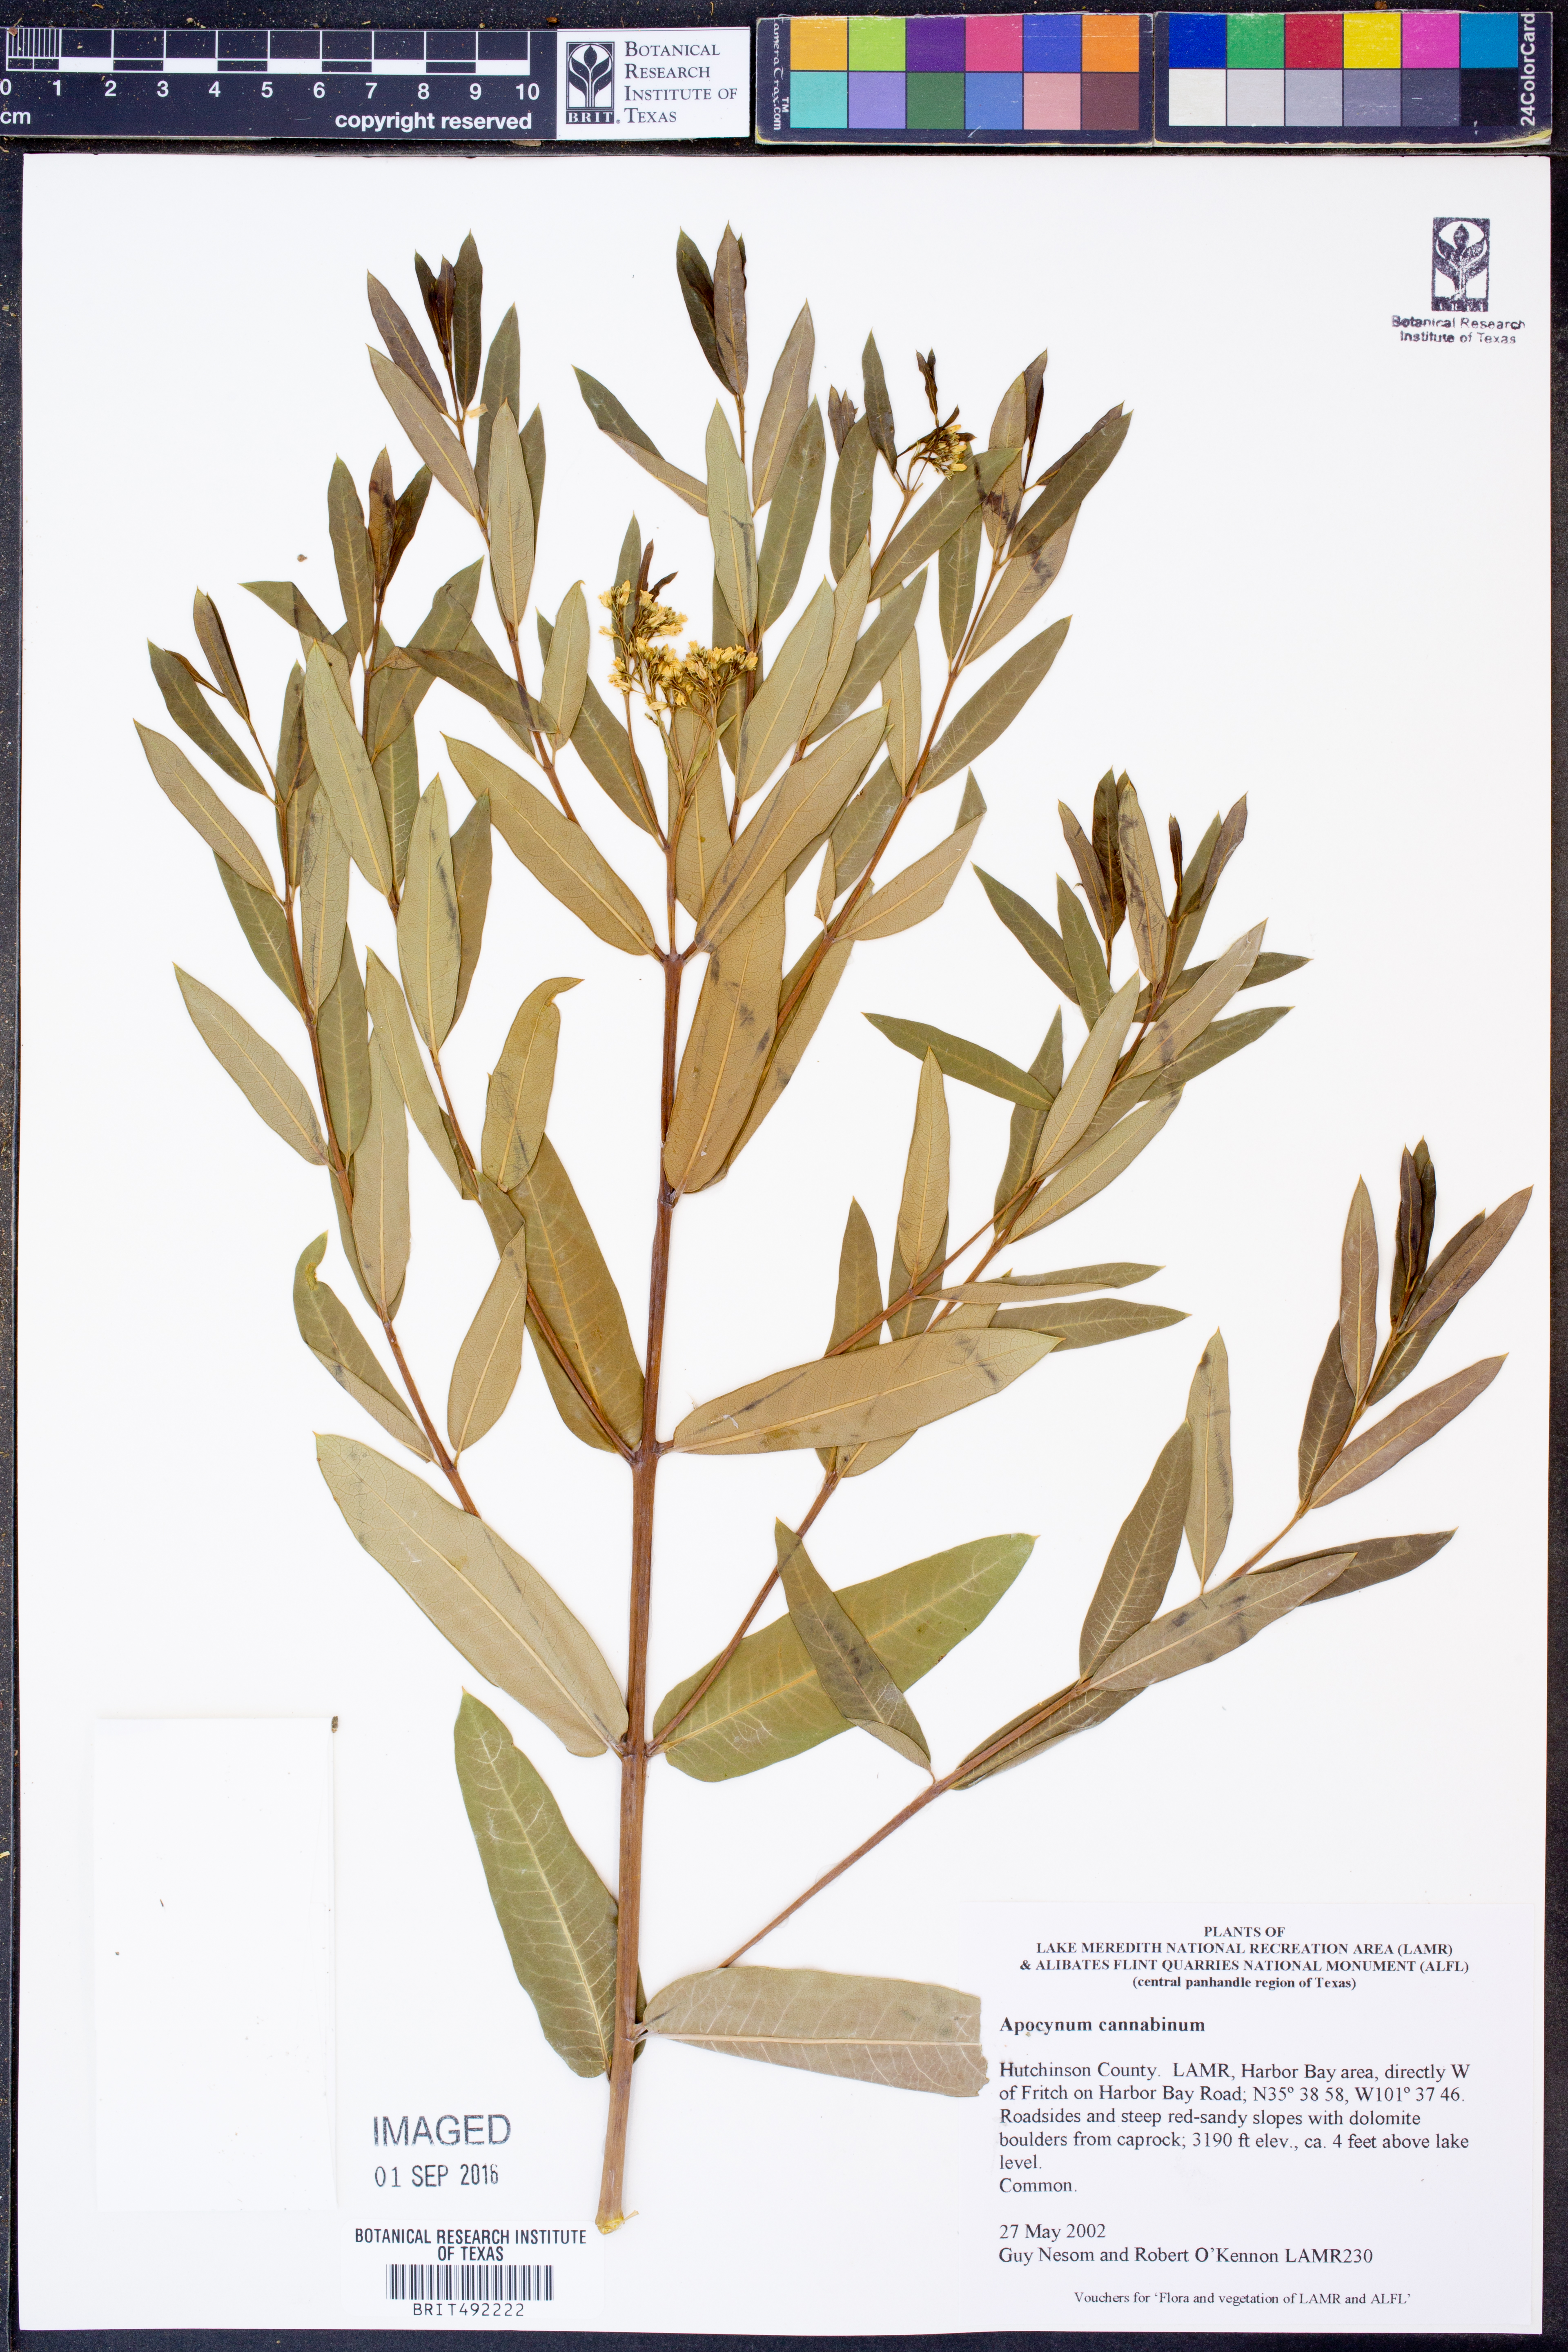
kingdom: Plantae
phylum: Tracheophyta
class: Magnoliopsida
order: Gentianales
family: Apocynaceae
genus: Apocynum
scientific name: Apocynum cannabinum
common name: Hemp dogbane
